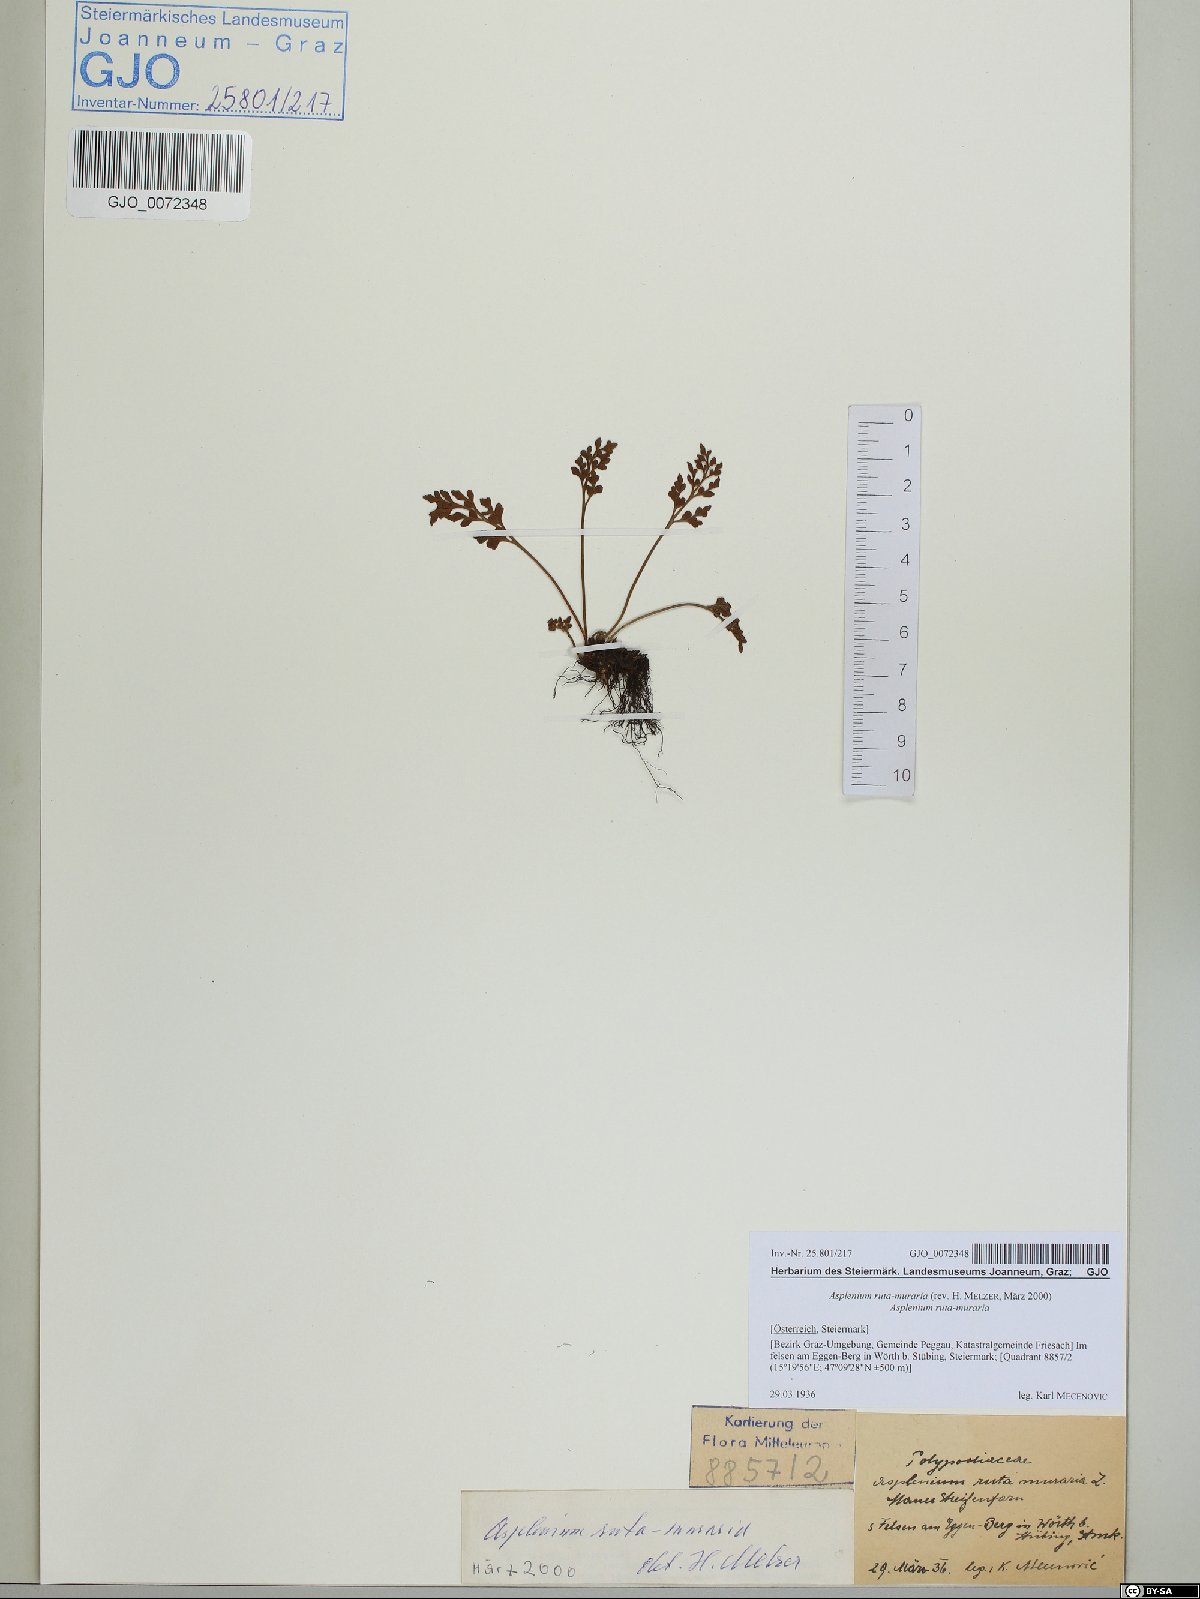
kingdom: Plantae
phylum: Tracheophyta
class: Polypodiopsida
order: Polypodiales
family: Aspleniaceae
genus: Asplenium
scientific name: Asplenium ruta-muraria
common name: Wall-rue
